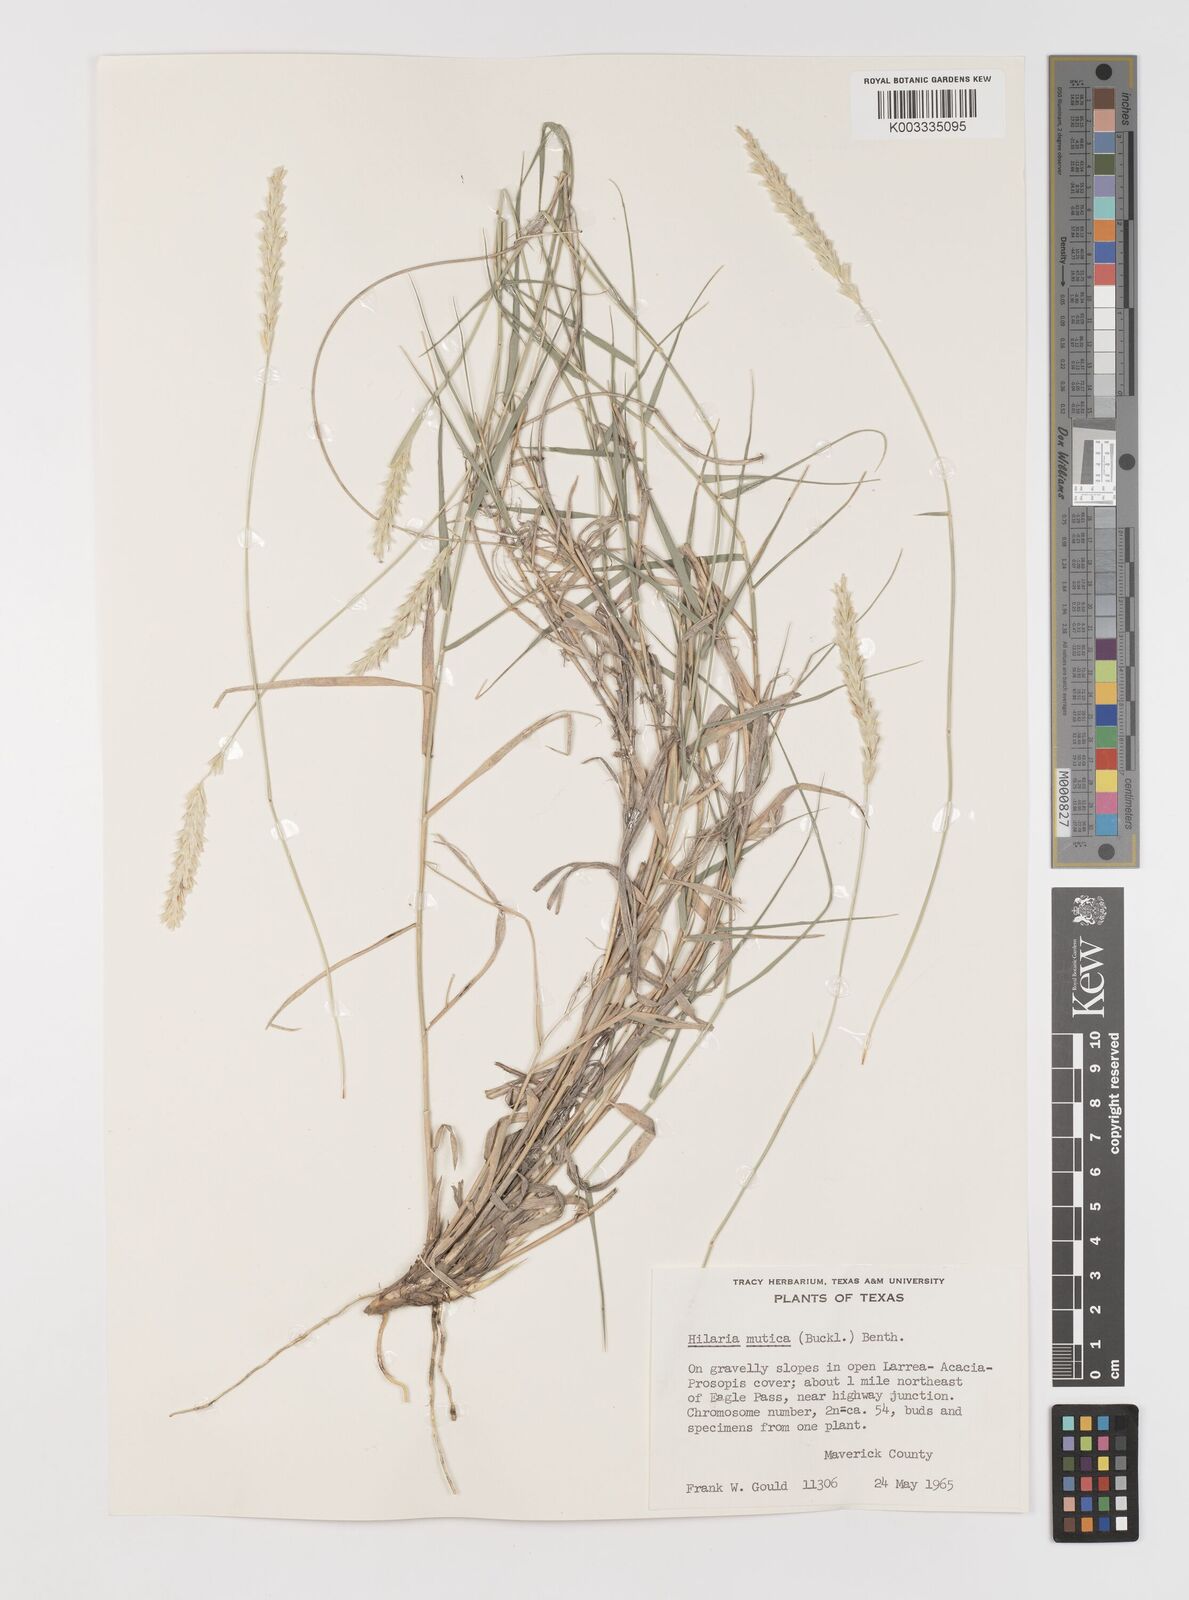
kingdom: Plantae
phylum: Tracheophyta
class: Liliopsida
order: Poales
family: Poaceae
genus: Hilaria
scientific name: Hilaria mutica
